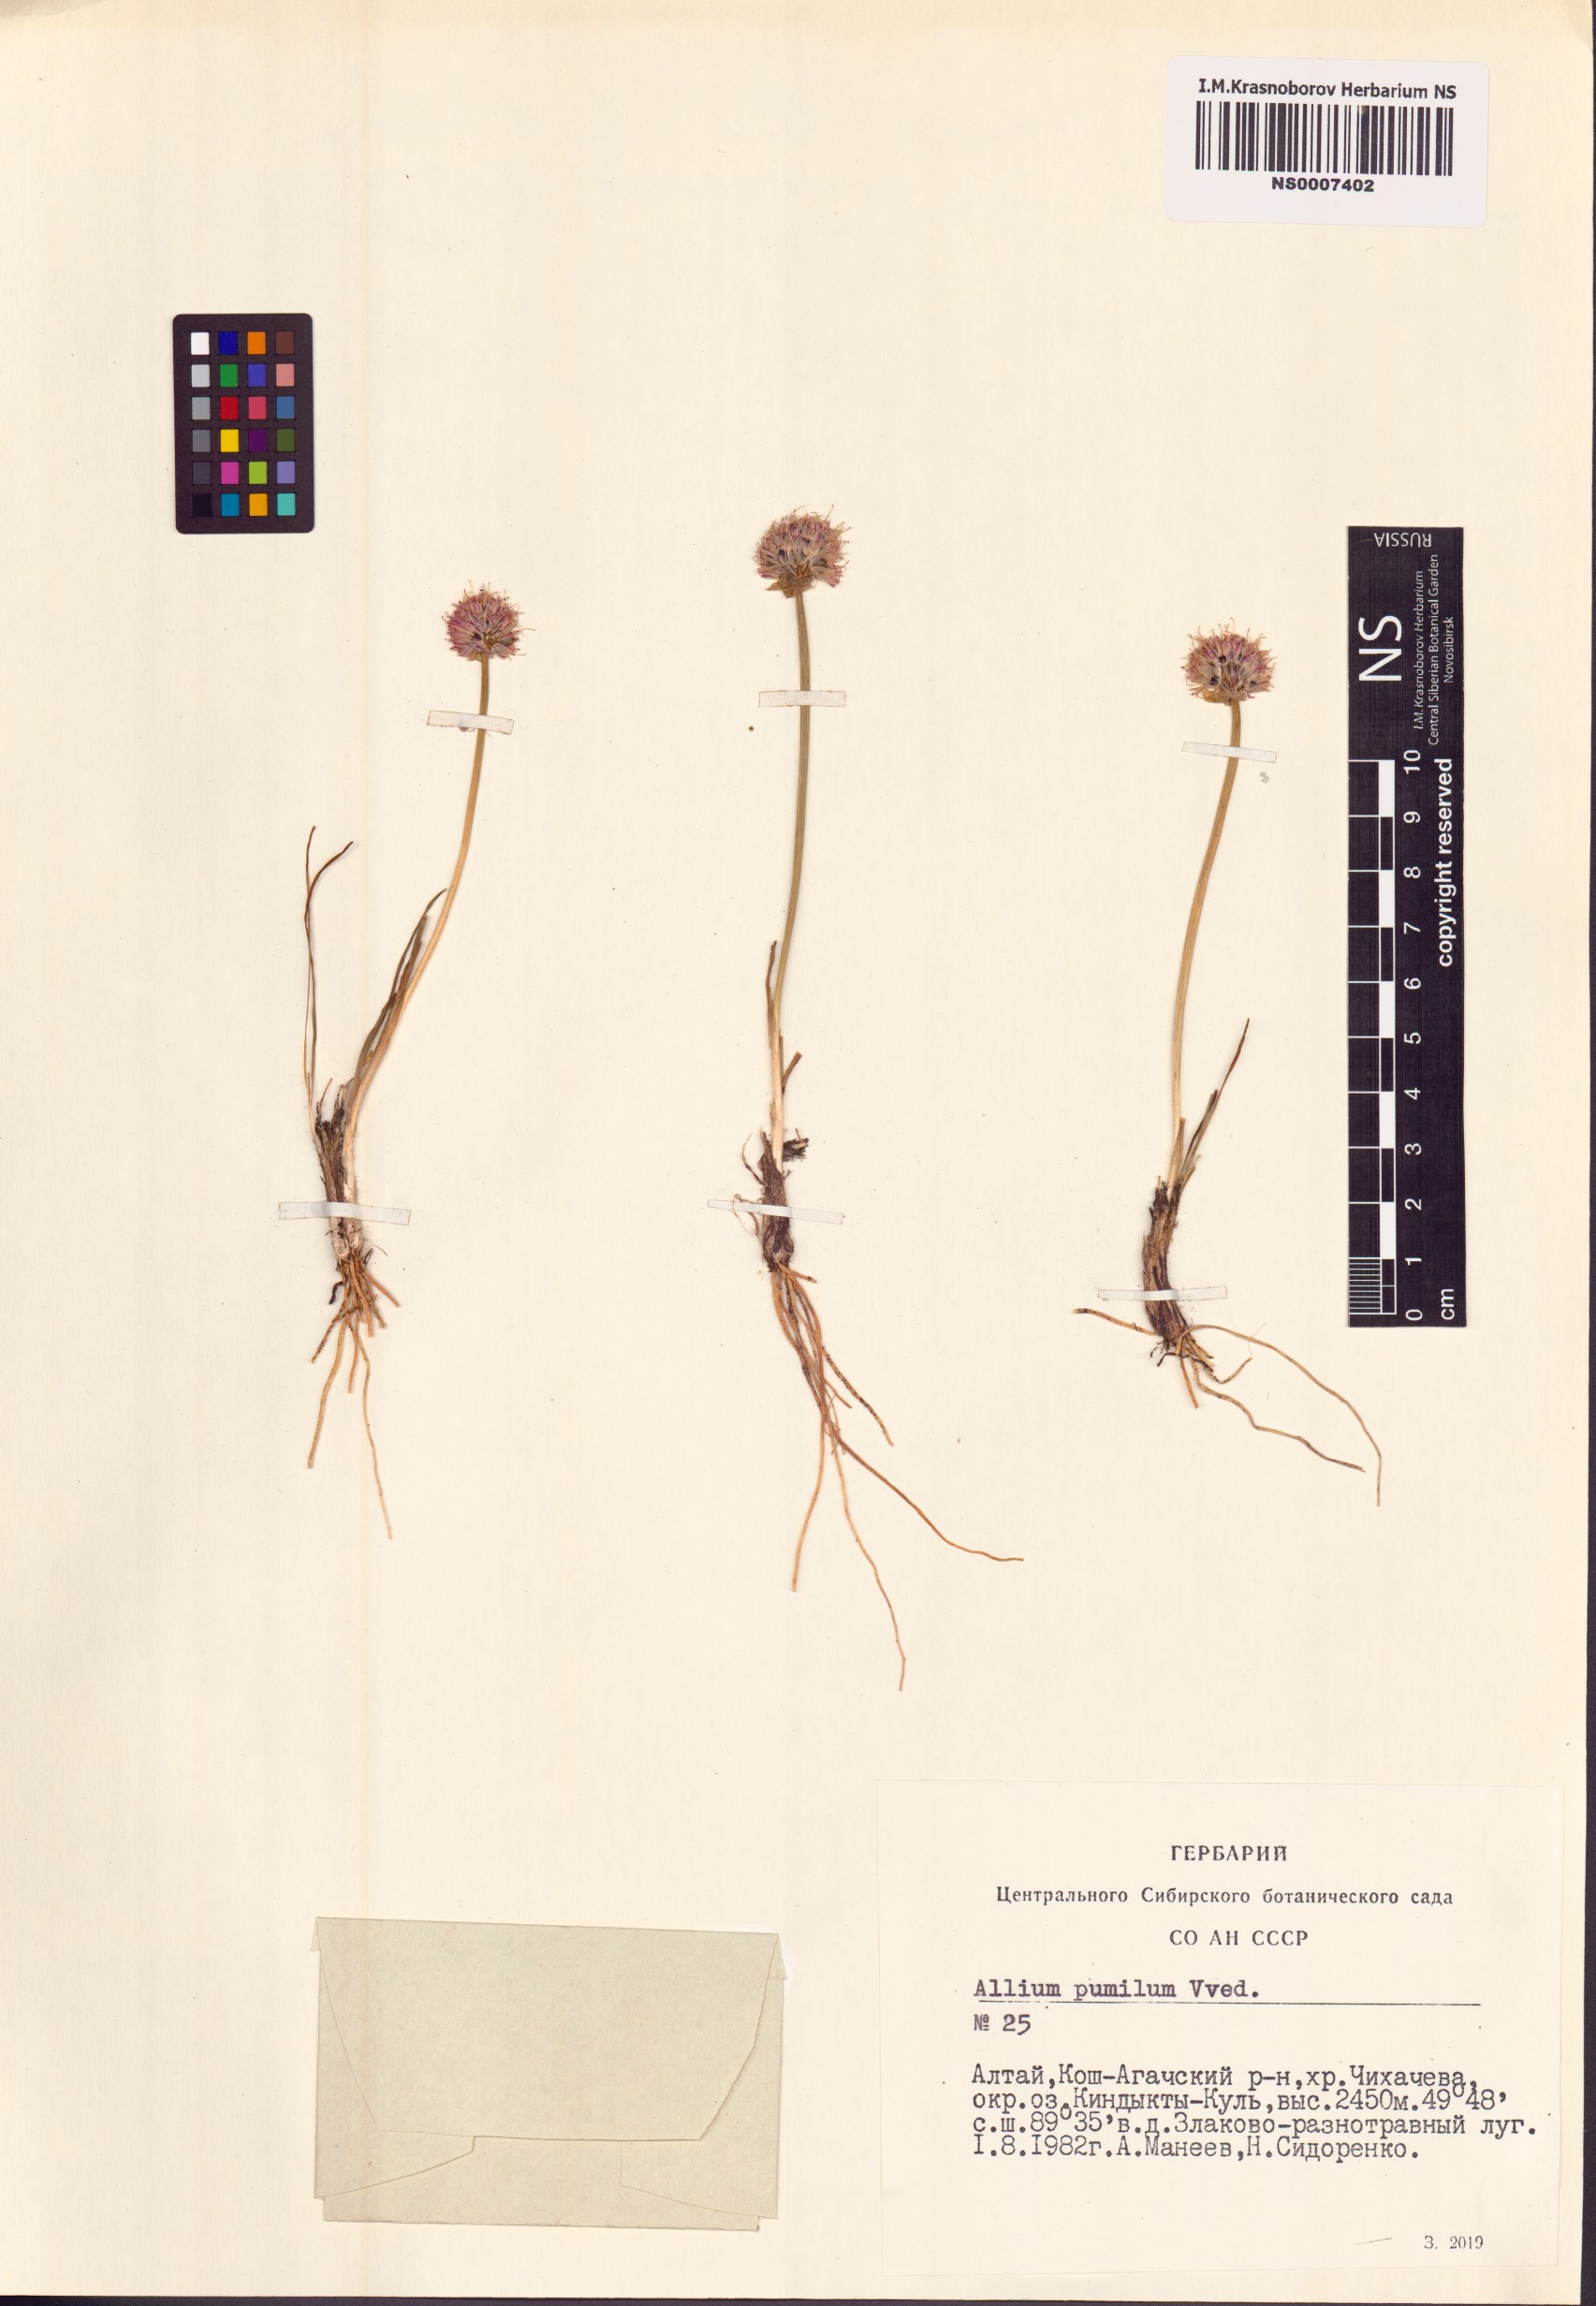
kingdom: Plantae
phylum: Tracheophyta
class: Liliopsida
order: Asparagales
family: Amaryllidaceae
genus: Allium
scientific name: Allium pumilum
